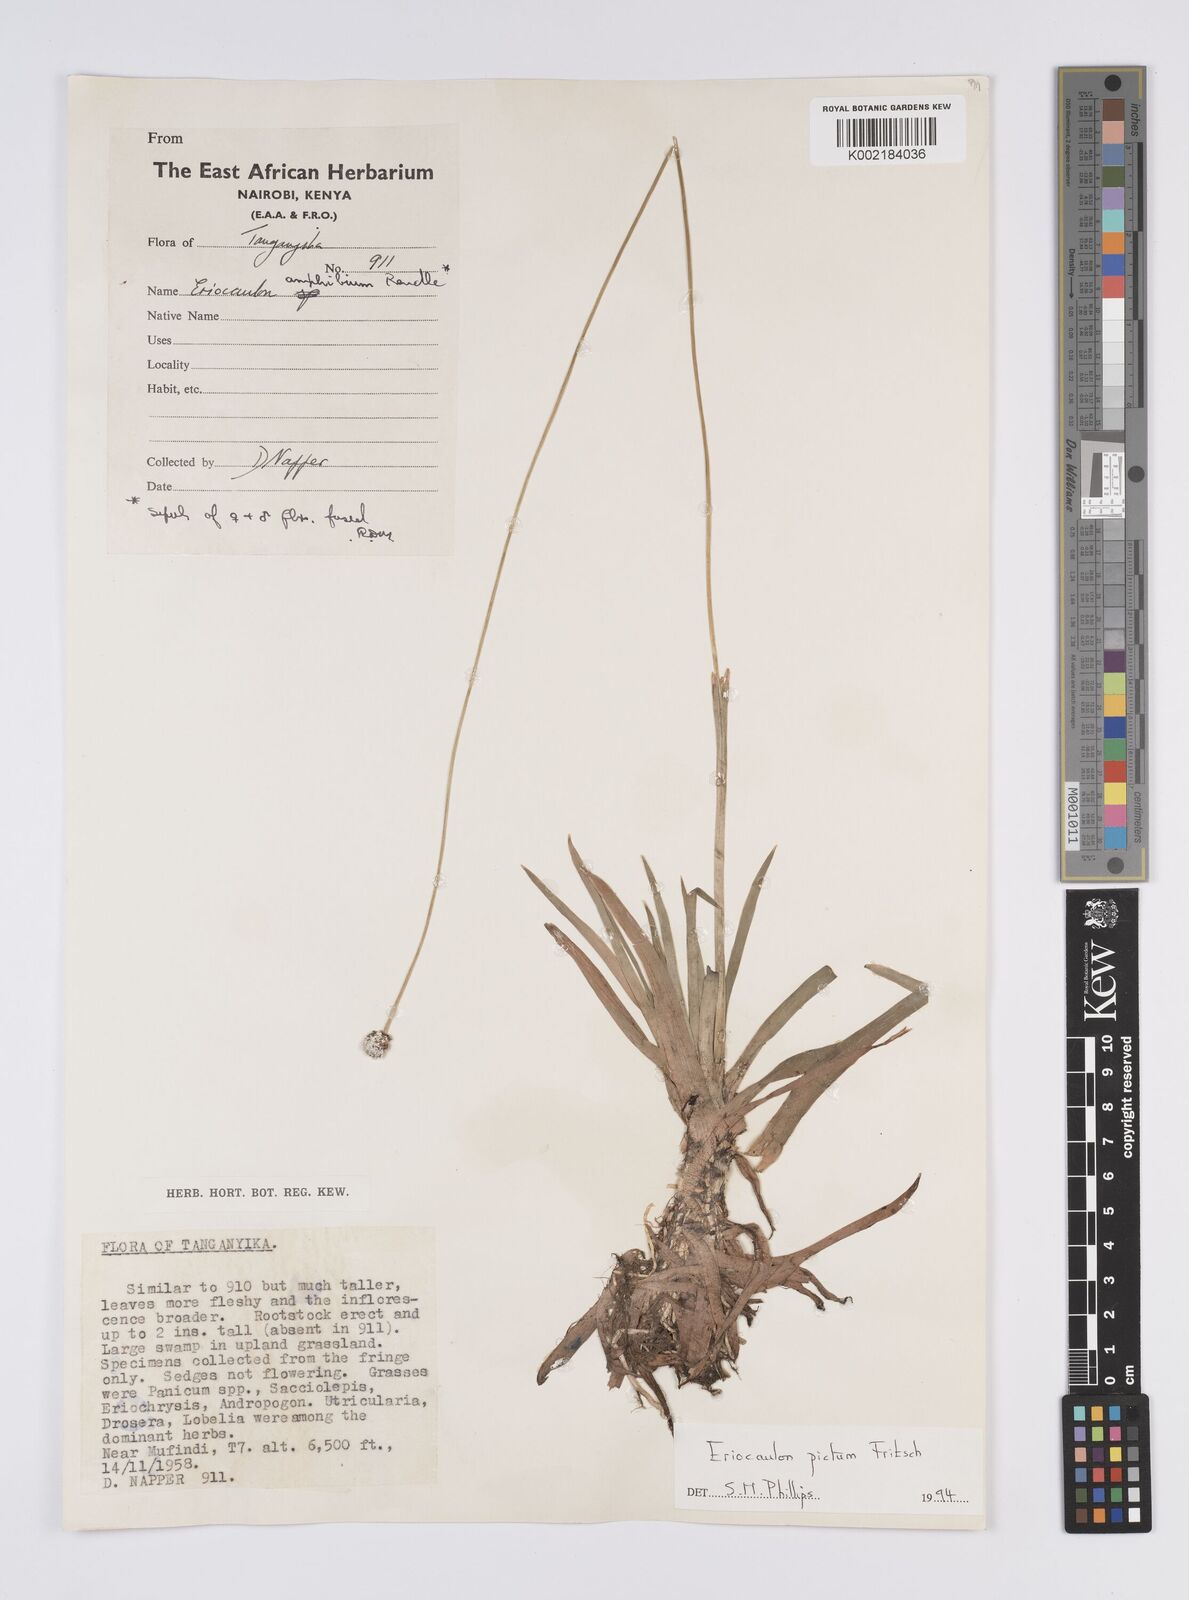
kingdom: Plantae
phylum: Tracheophyta
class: Liliopsida
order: Poales
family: Eriocaulaceae
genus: Eriocaulon
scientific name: Eriocaulon pictum
